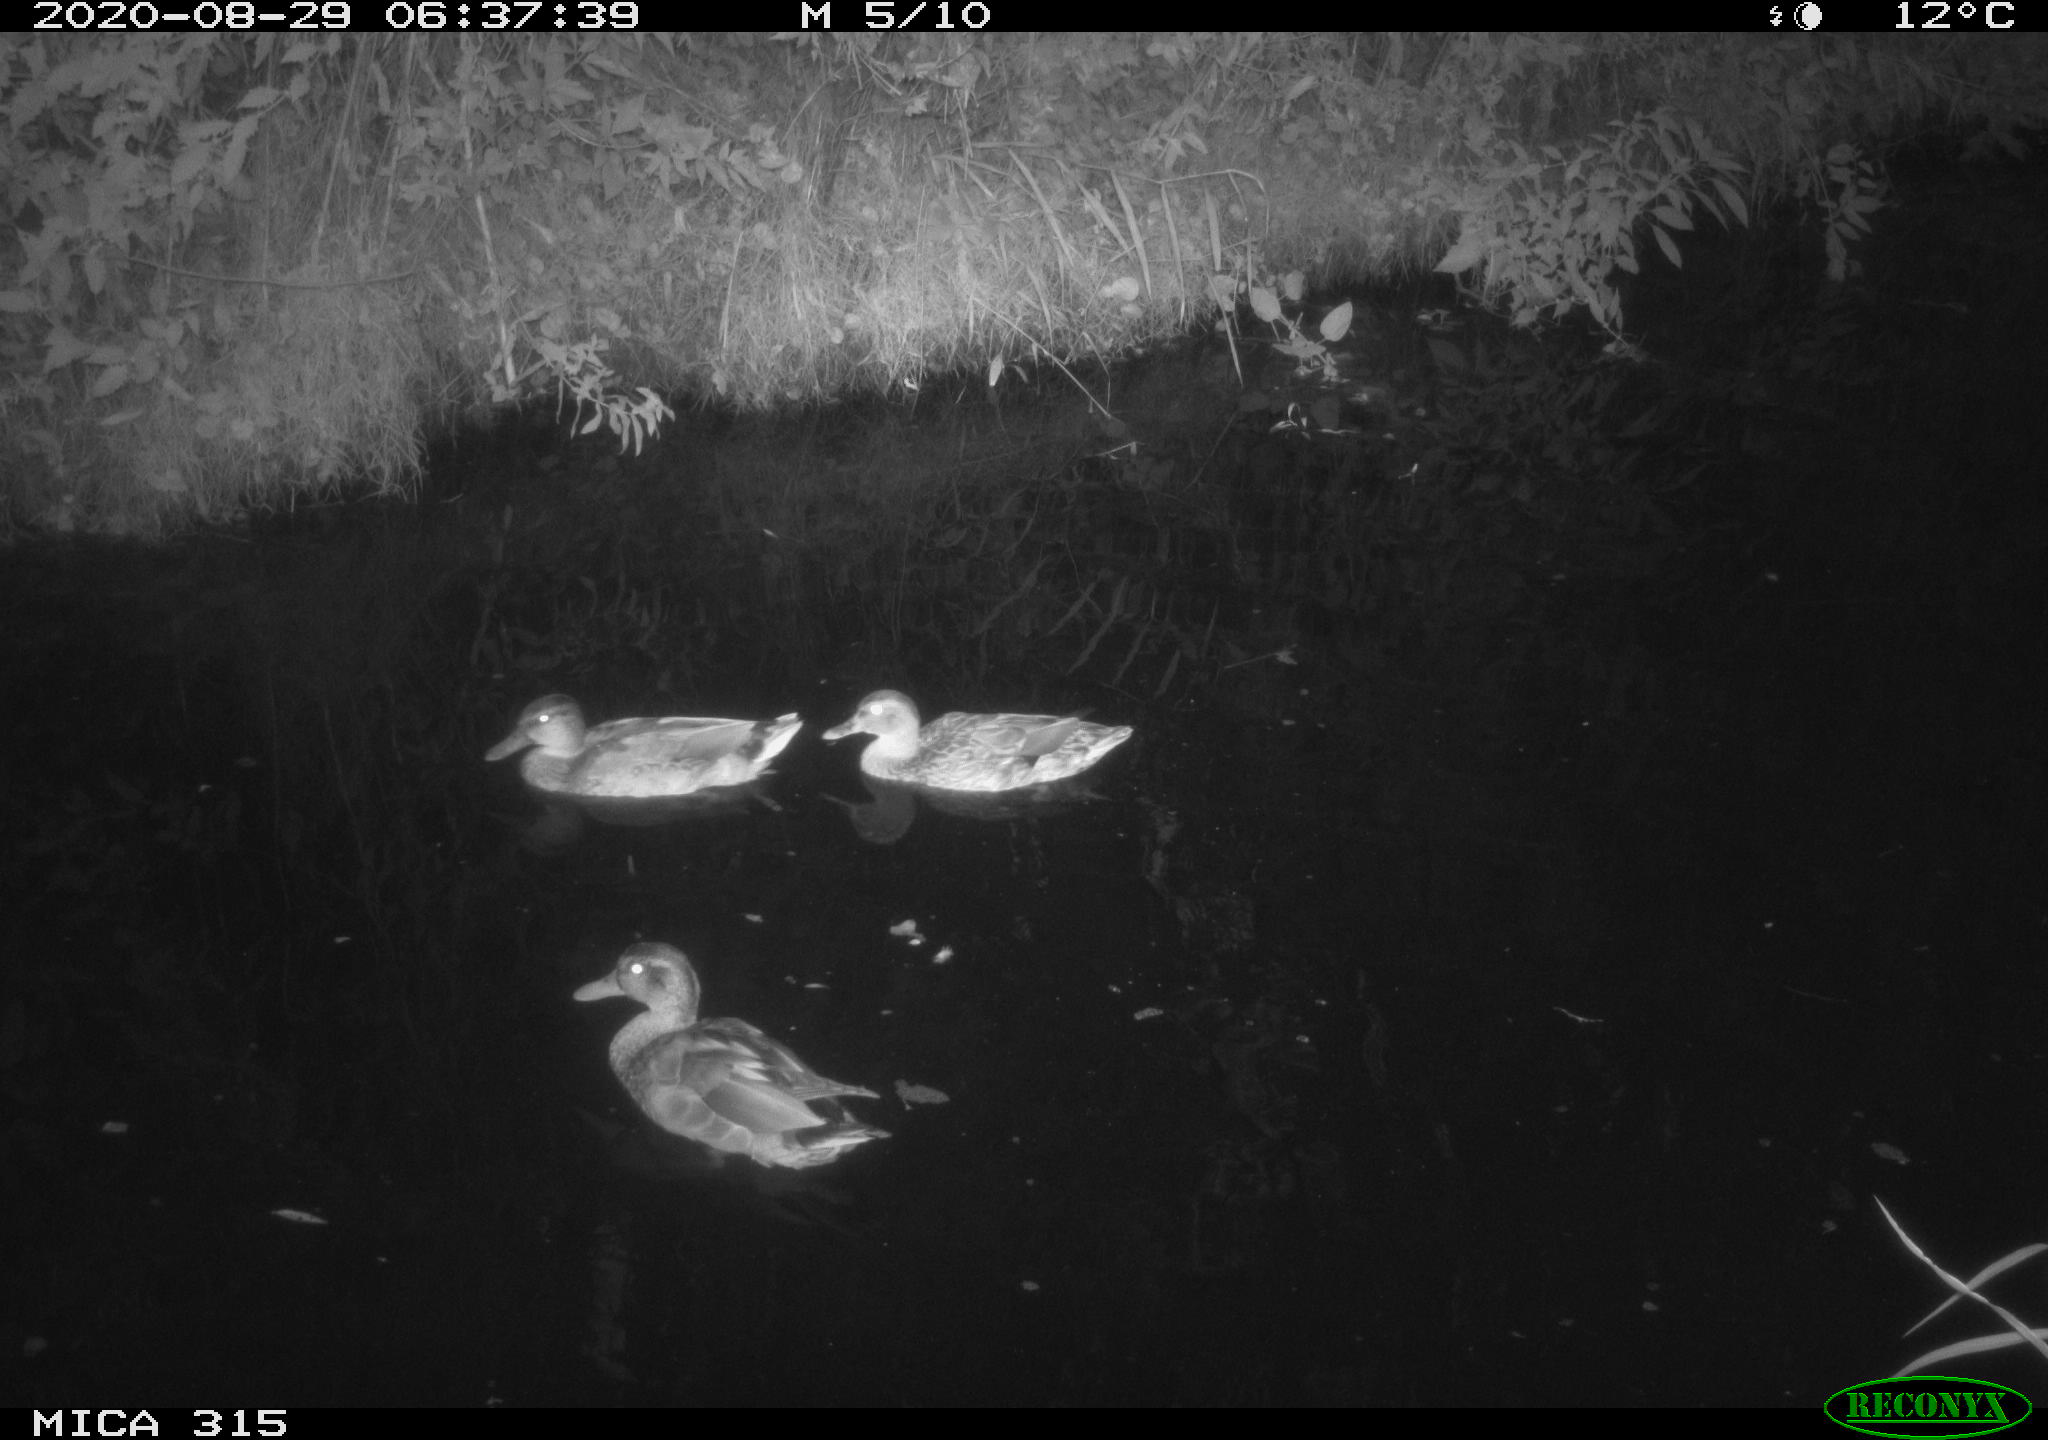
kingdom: Animalia
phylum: Chordata
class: Aves
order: Anseriformes
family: Anatidae
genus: Anas
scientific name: Anas platyrhynchos
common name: Mallard
